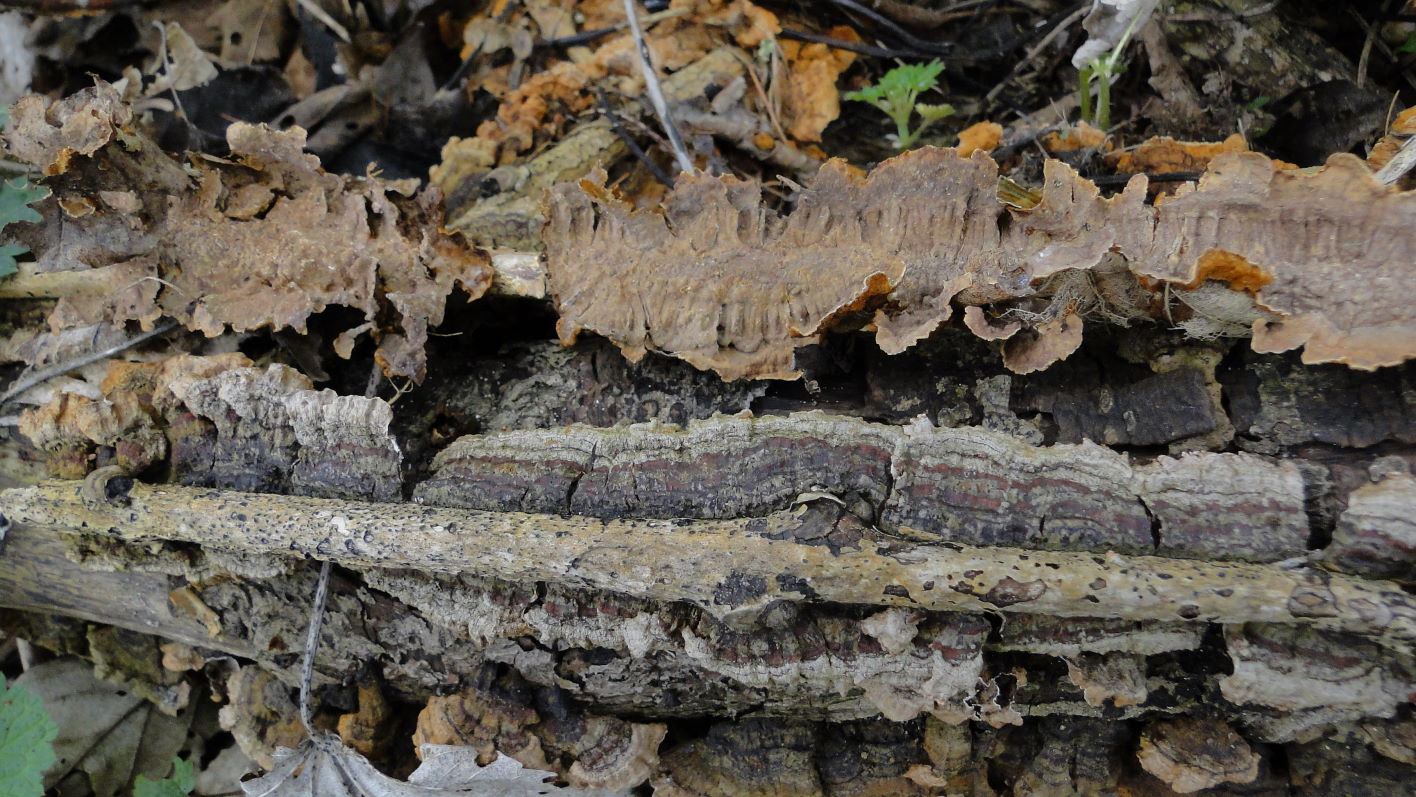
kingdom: Fungi
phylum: Basidiomycota
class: Agaricomycetes
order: Hymenochaetales
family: Hymenochaetaceae
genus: Hydnoporia
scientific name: Hydnoporia tabacina
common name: tobaksbrun ruslædersvamp
